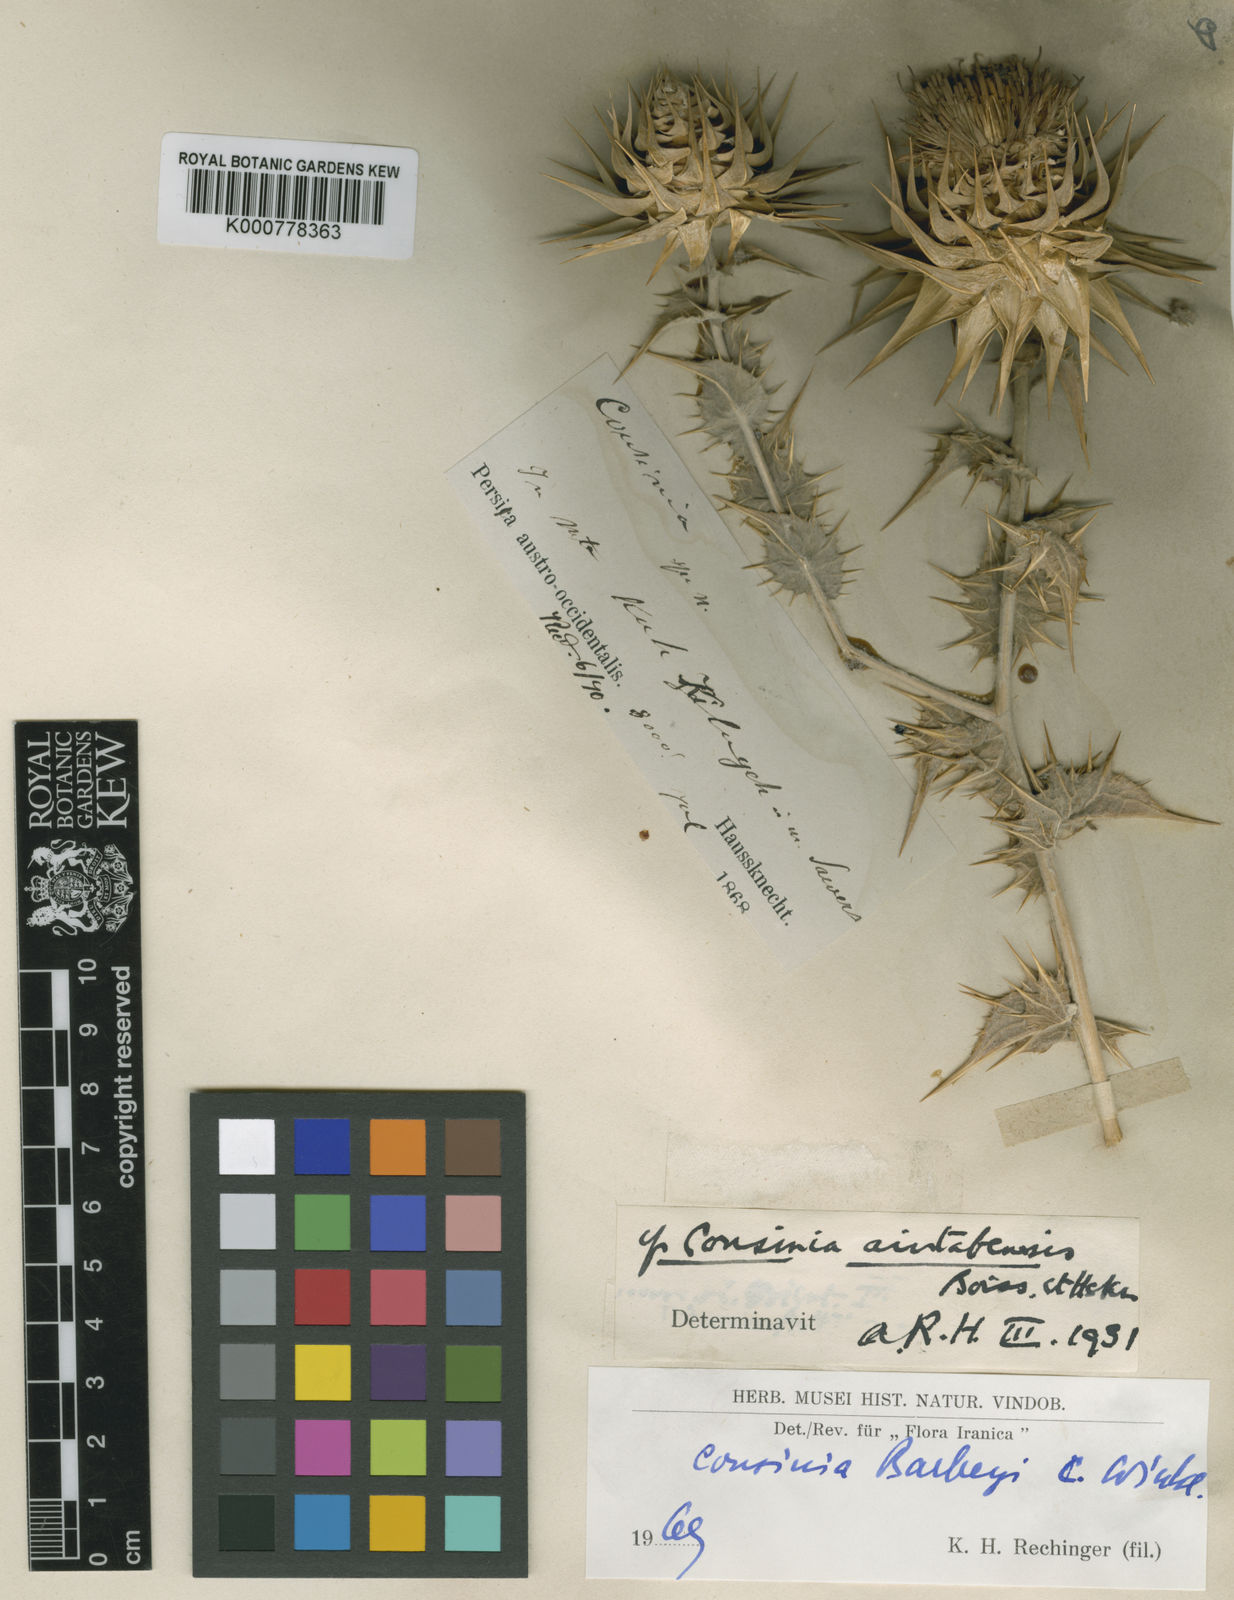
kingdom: Plantae
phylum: Tracheophyta
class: Magnoliopsida
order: Asterales
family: Asteraceae
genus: Cousinia
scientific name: Cousinia barbeyi
